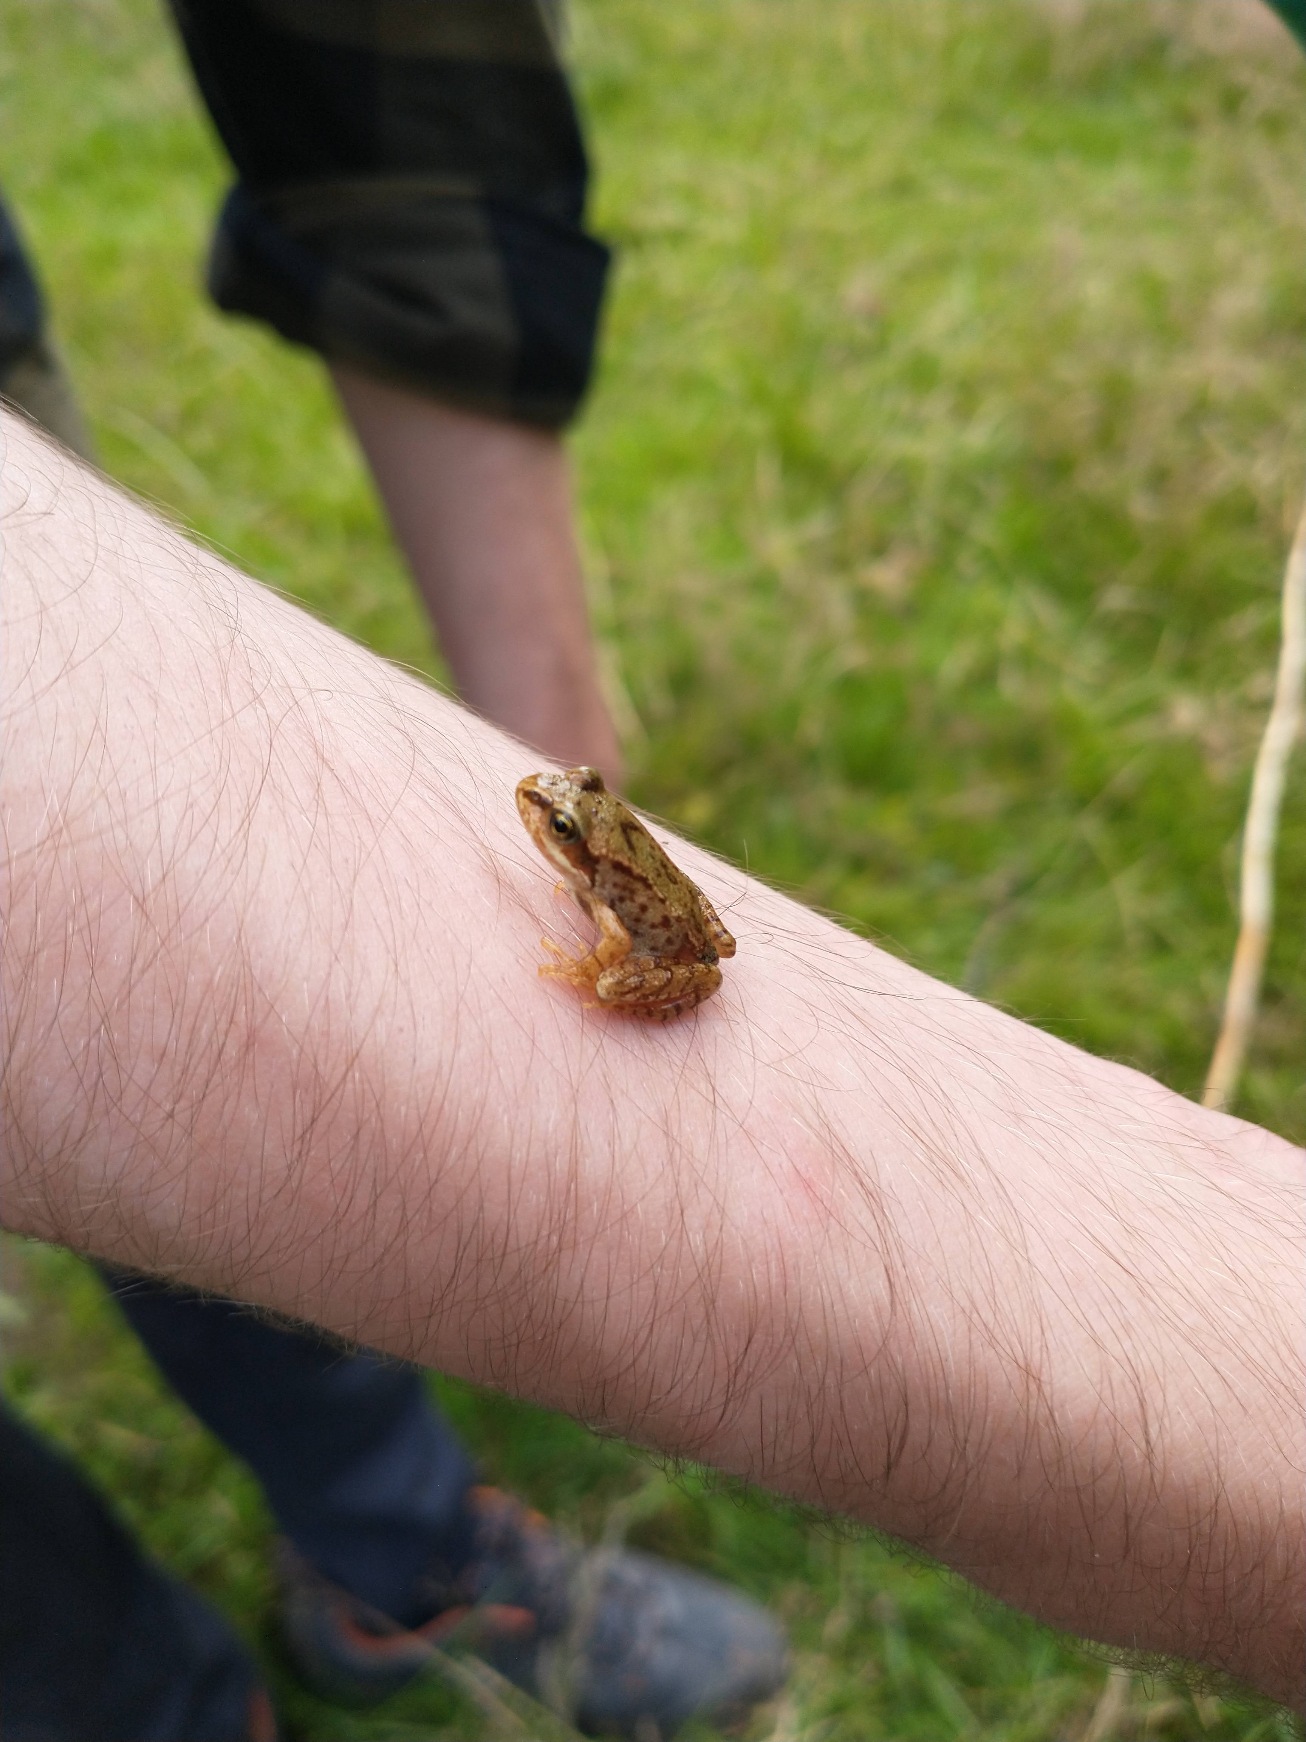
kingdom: Animalia
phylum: Chordata
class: Amphibia
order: Anura
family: Ranidae
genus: Rana
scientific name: Rana temporaria
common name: Butsnudet frø
